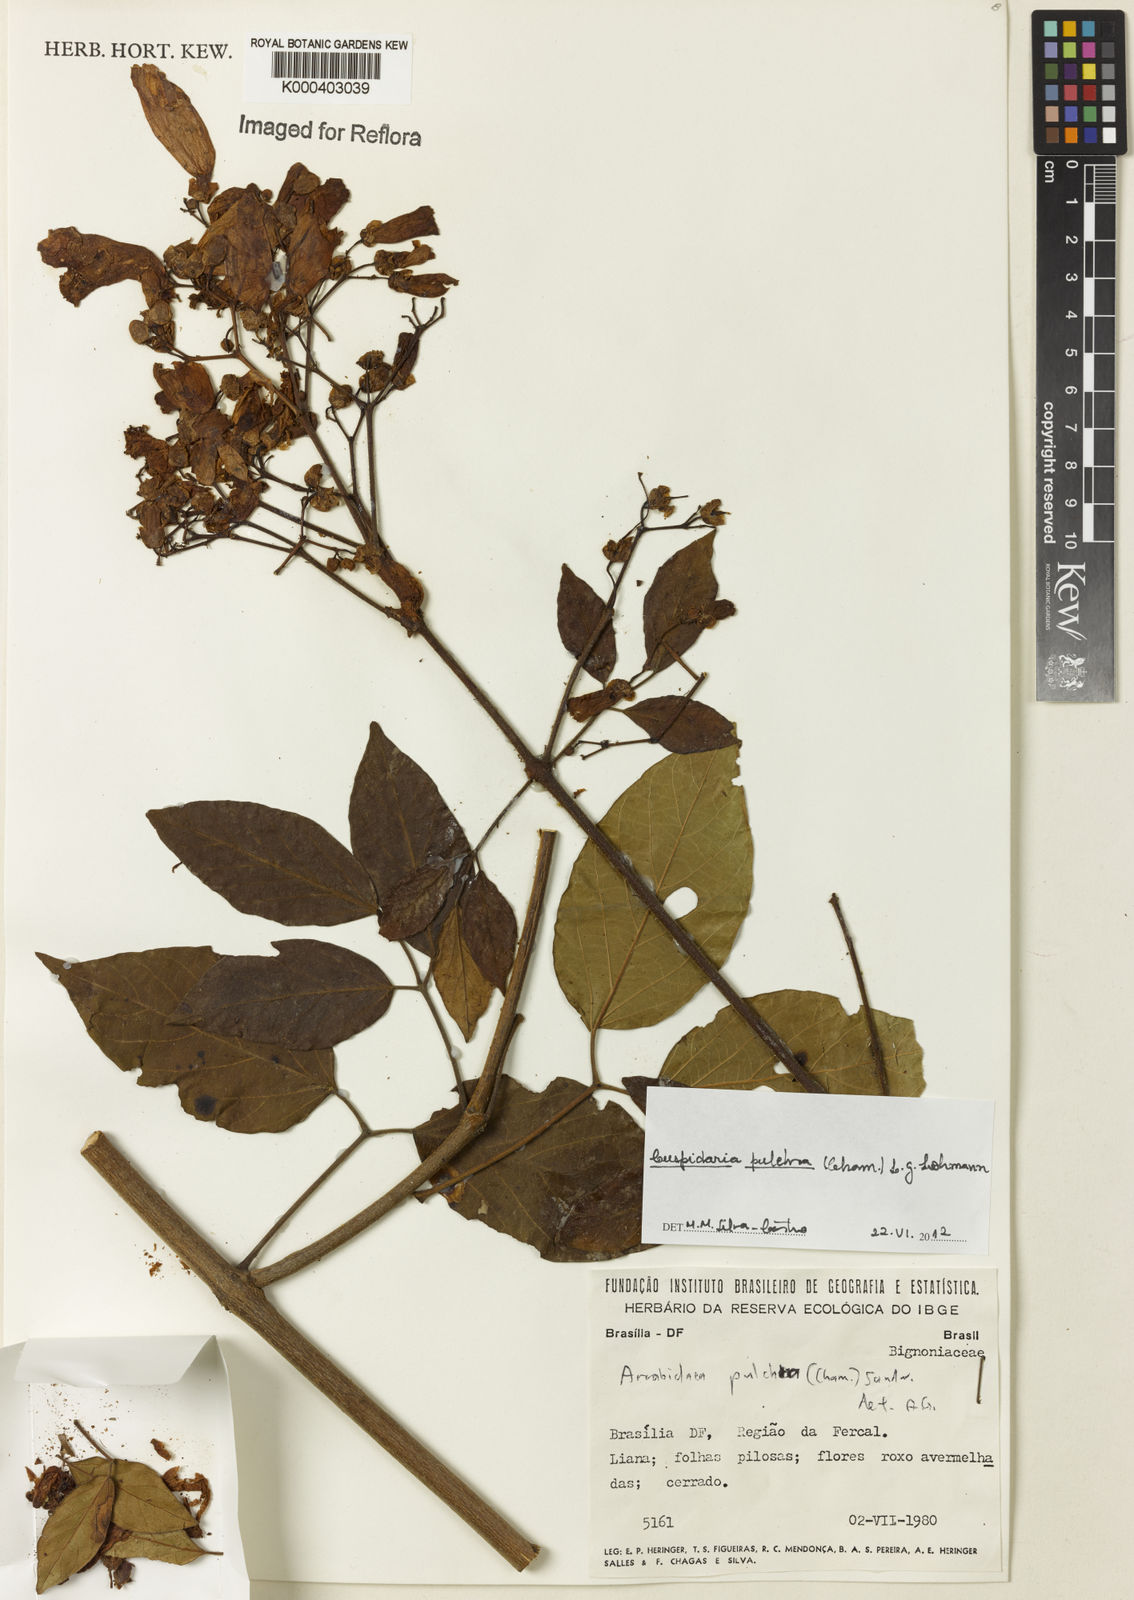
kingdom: Plantae
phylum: Tracheophyta
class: Magnoliopsida
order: Lamiales
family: Bignoniaceae
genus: Cuspidaria
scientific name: Cuspidaria pulchra
